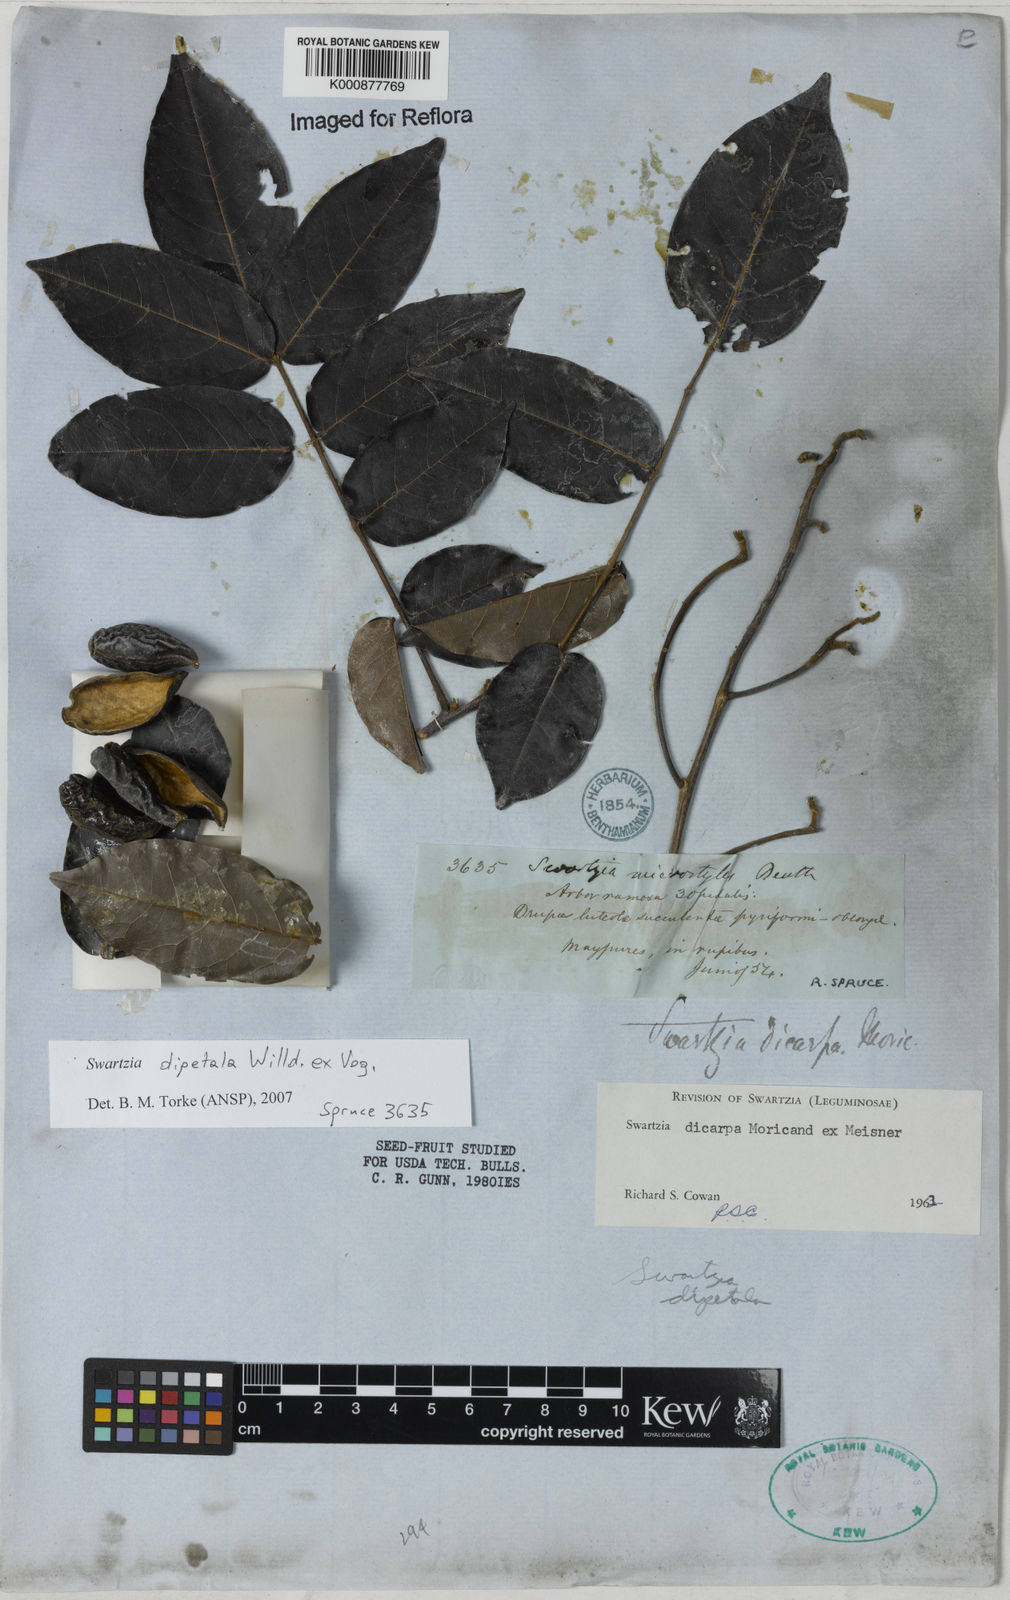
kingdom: Plantae
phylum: Tracheophyta
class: Magnoliopsida
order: Fabales
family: Fabaceae
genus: Swartzia
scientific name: Swartzia dipetala
